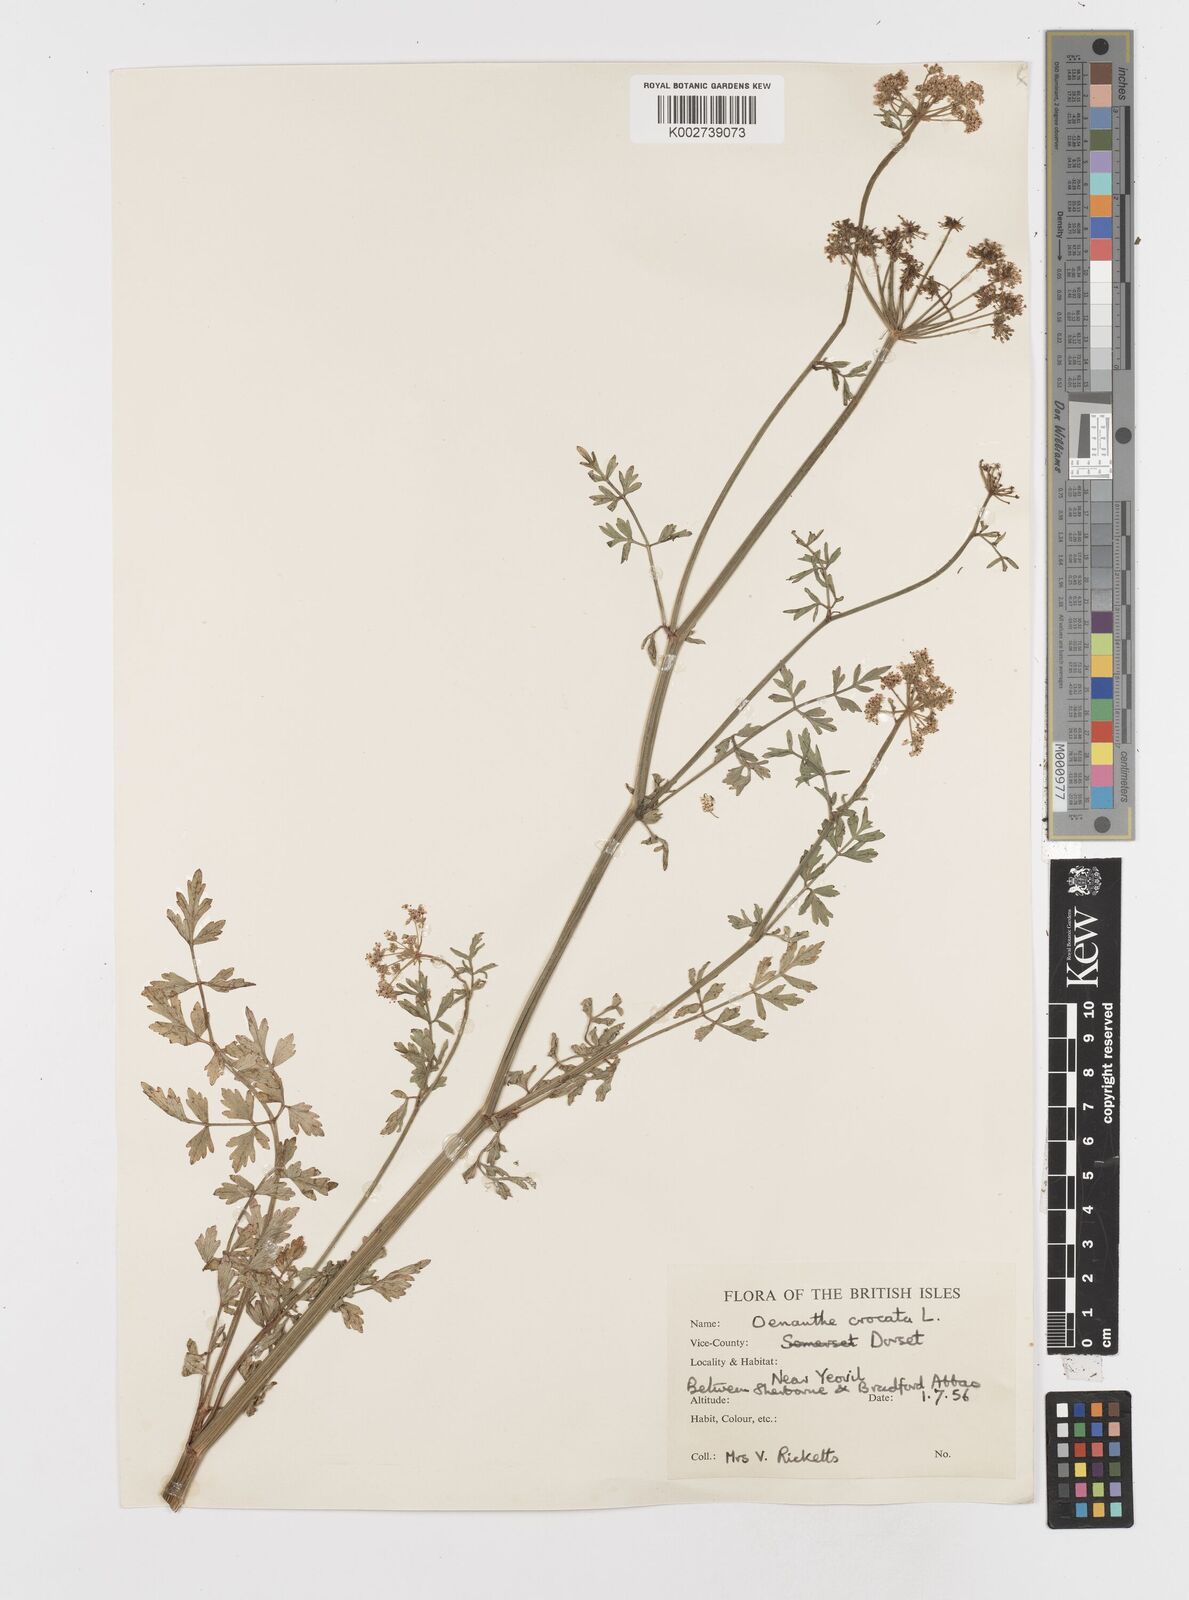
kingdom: Plantae
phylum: Tracheophyta
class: Magnoliopsida
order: Apiales
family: Apiaceae
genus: Oenanthe
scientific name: Oenanthe crocata
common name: Hemlock water-dropwort
